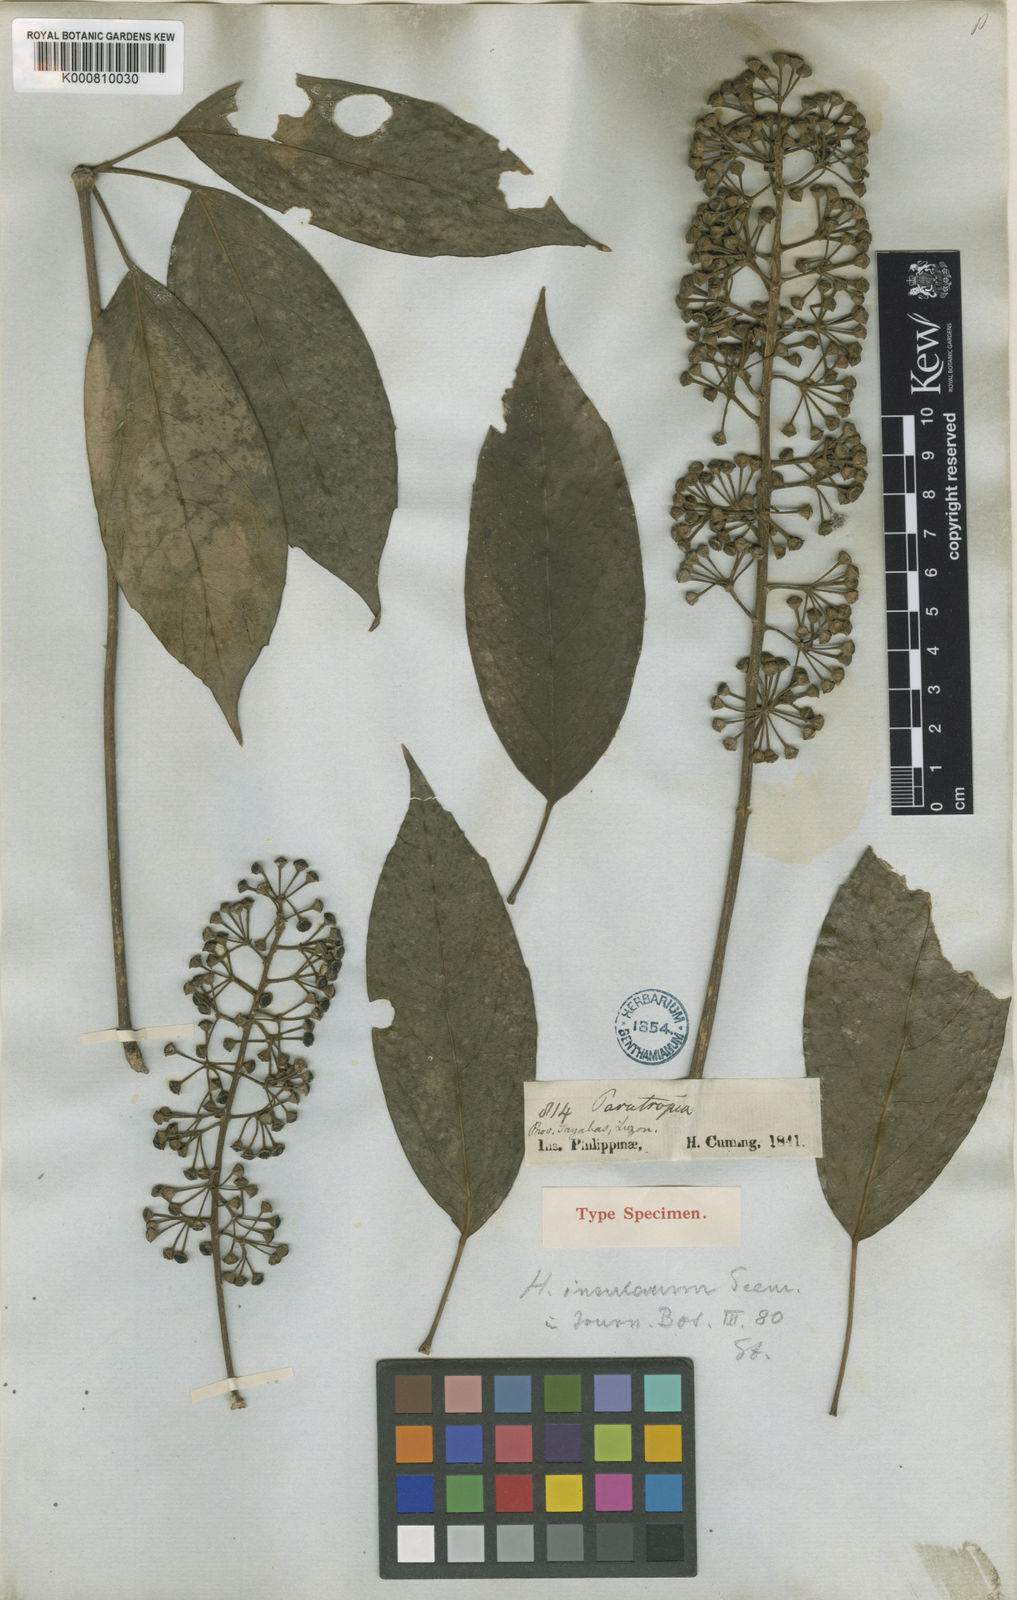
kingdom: Plantae
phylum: Tracheophyta
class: Magnoliopsida
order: Apiales
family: Araliaceae
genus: Heptapleurum
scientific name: Heptapleurum insularum
